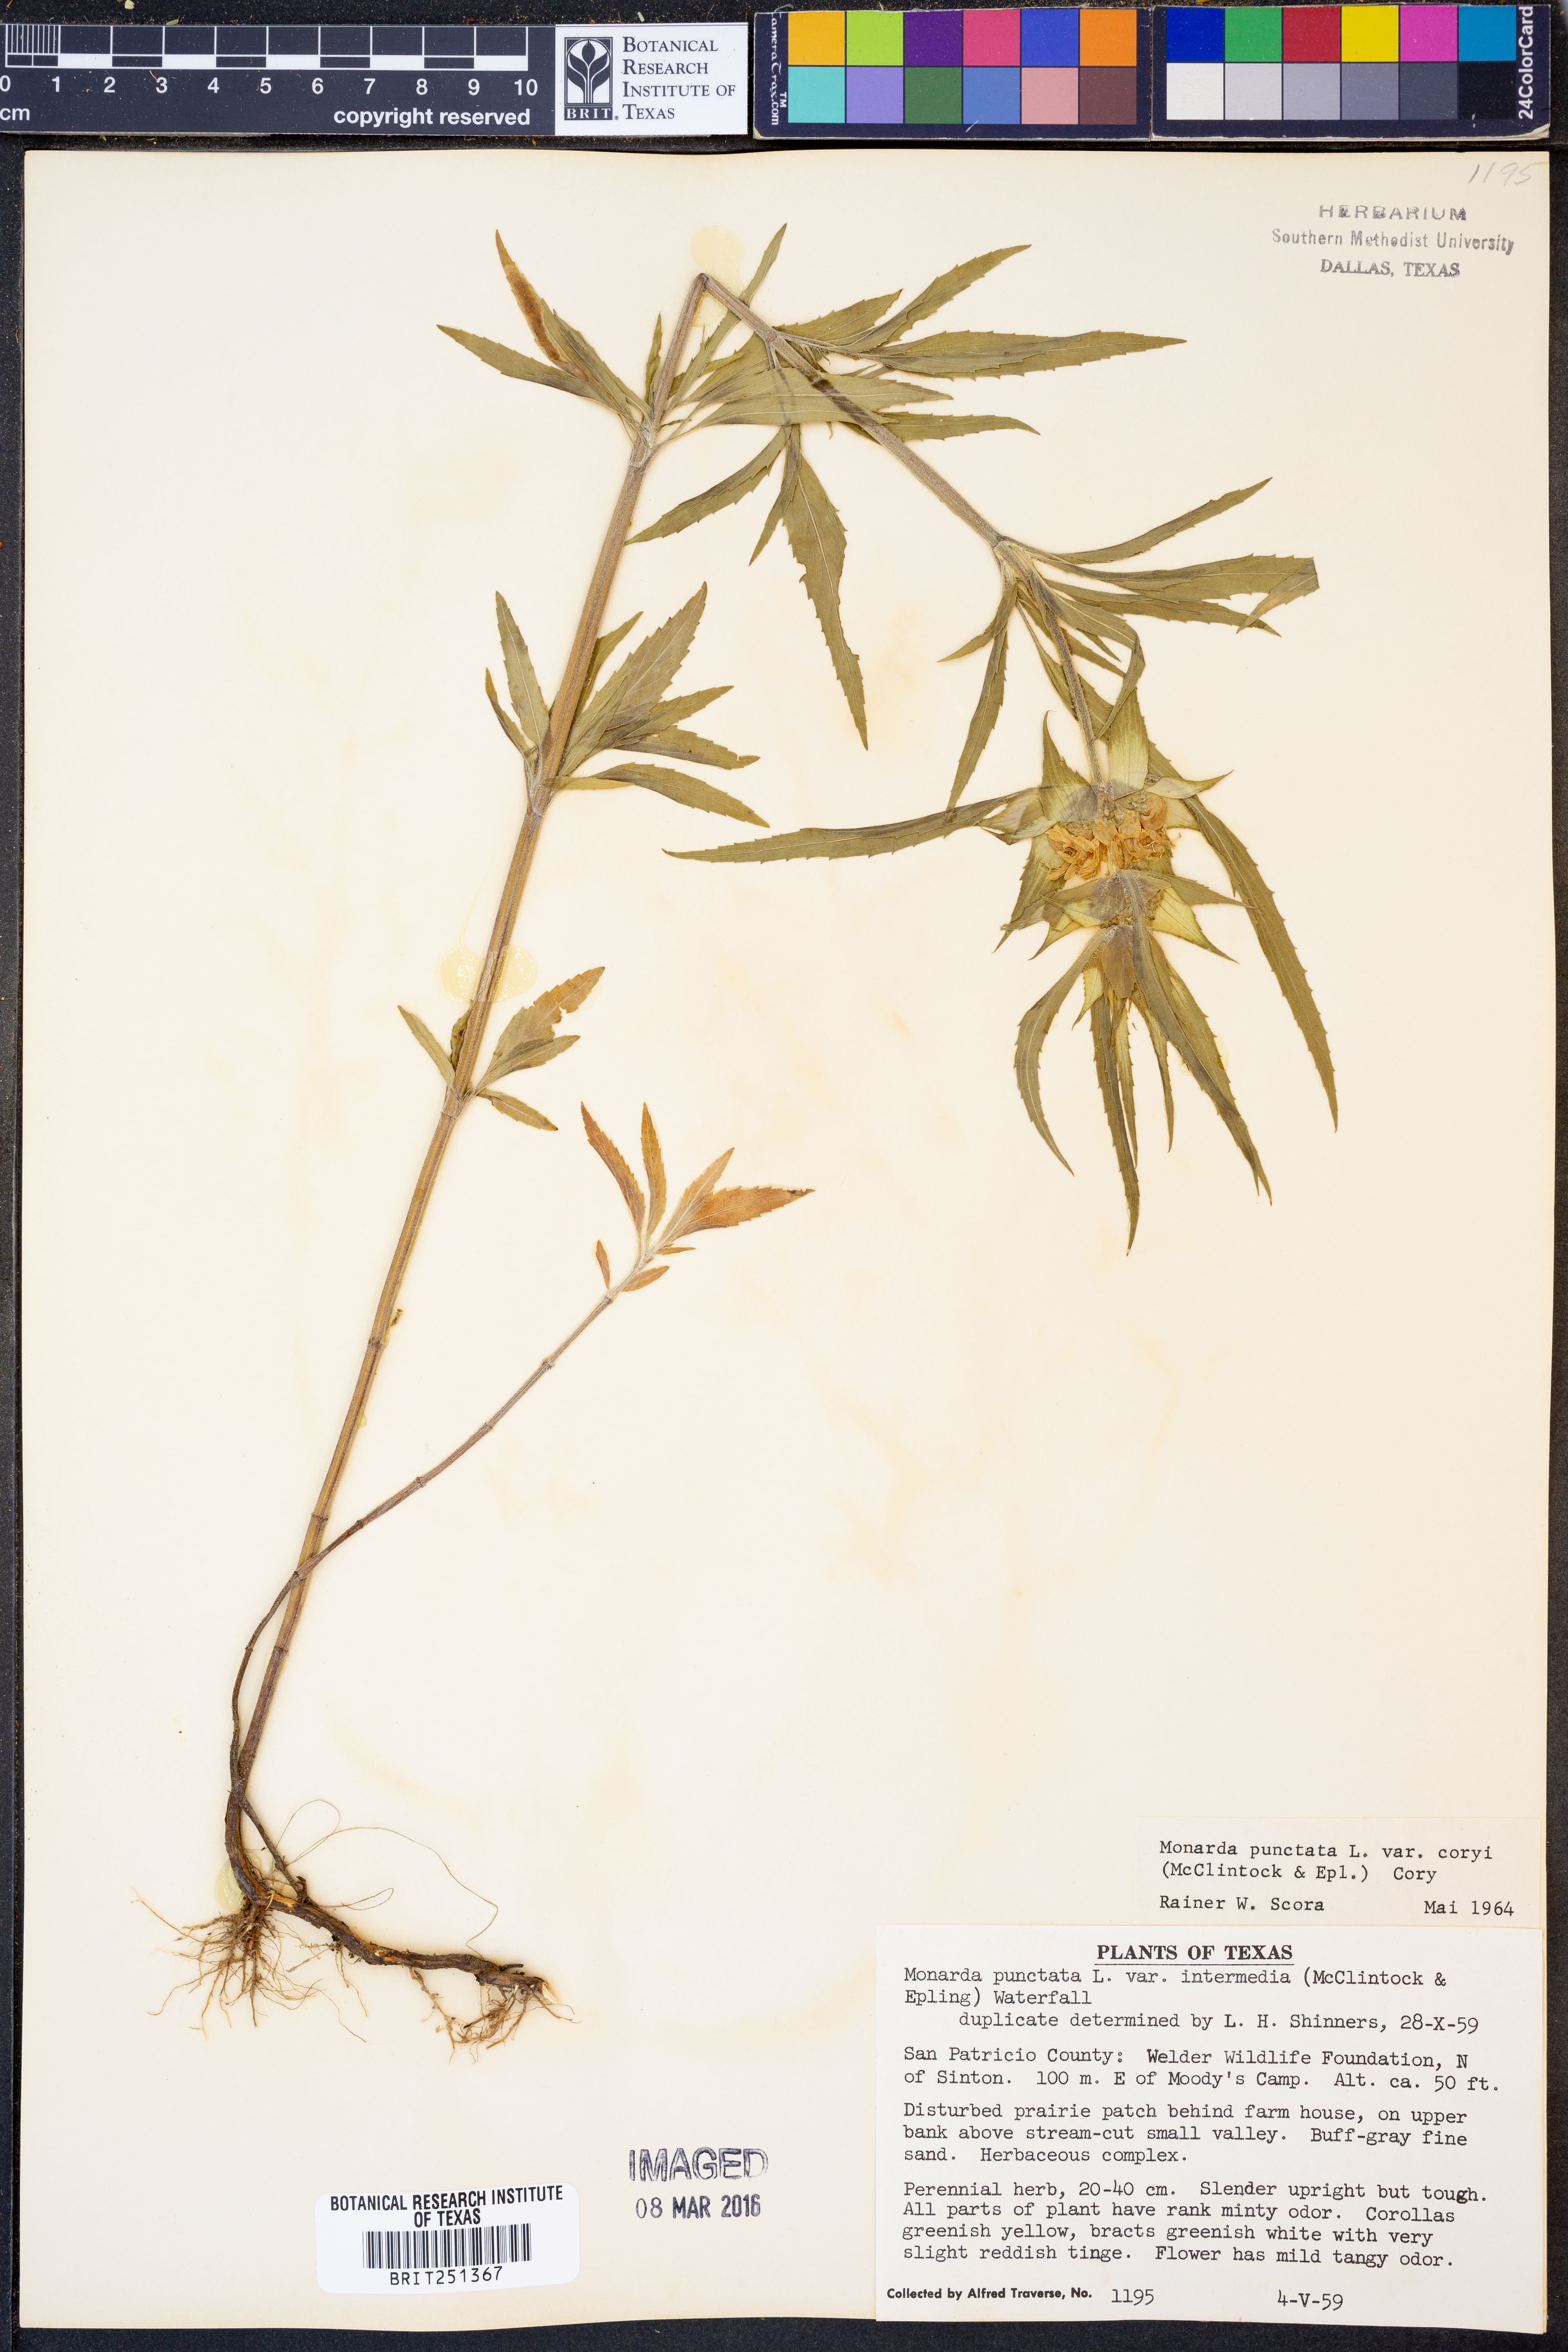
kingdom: Plantae
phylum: Tracheophyta
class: Magnoliopsida
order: Lamiales
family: Lamiaceae
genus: Monarda
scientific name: Monarda punctata
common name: Dotted monarda
